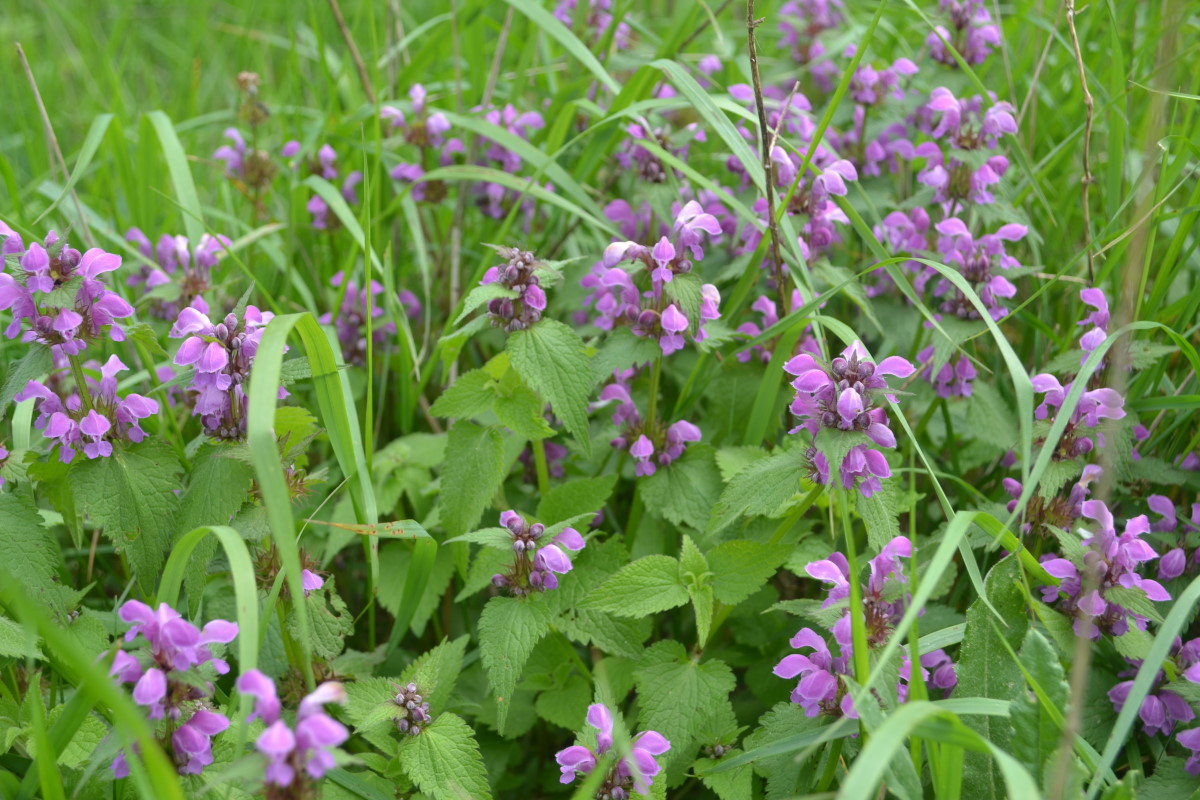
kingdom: Plantae
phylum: Tracheophyta
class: Magnoliopsida
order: Lamiales
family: Lamiaceae
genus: Lamium
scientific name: Lamium purpureum
